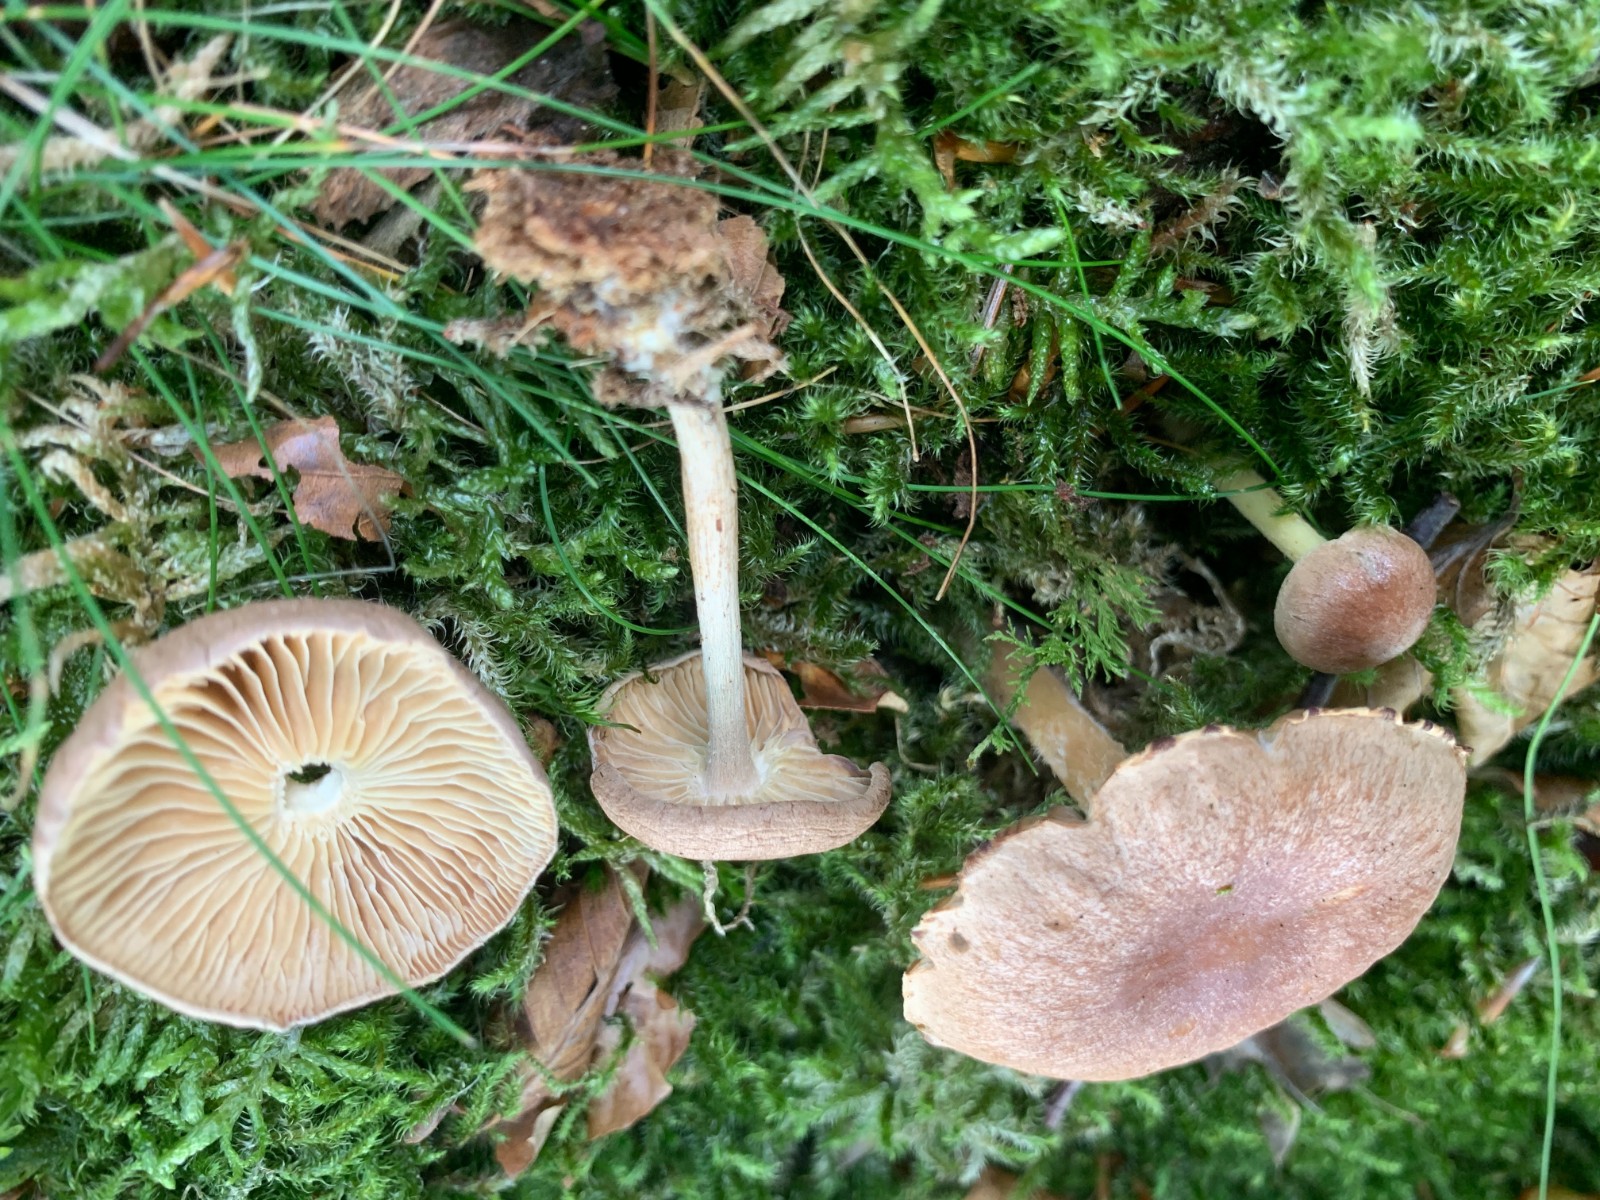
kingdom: Fungi
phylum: Basidiomycota
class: Agaricomycetes
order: Agaricales
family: Omphalotaceae
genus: Collybiopsis
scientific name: Collybiopsis peronata
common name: bestøvlet fladhat
